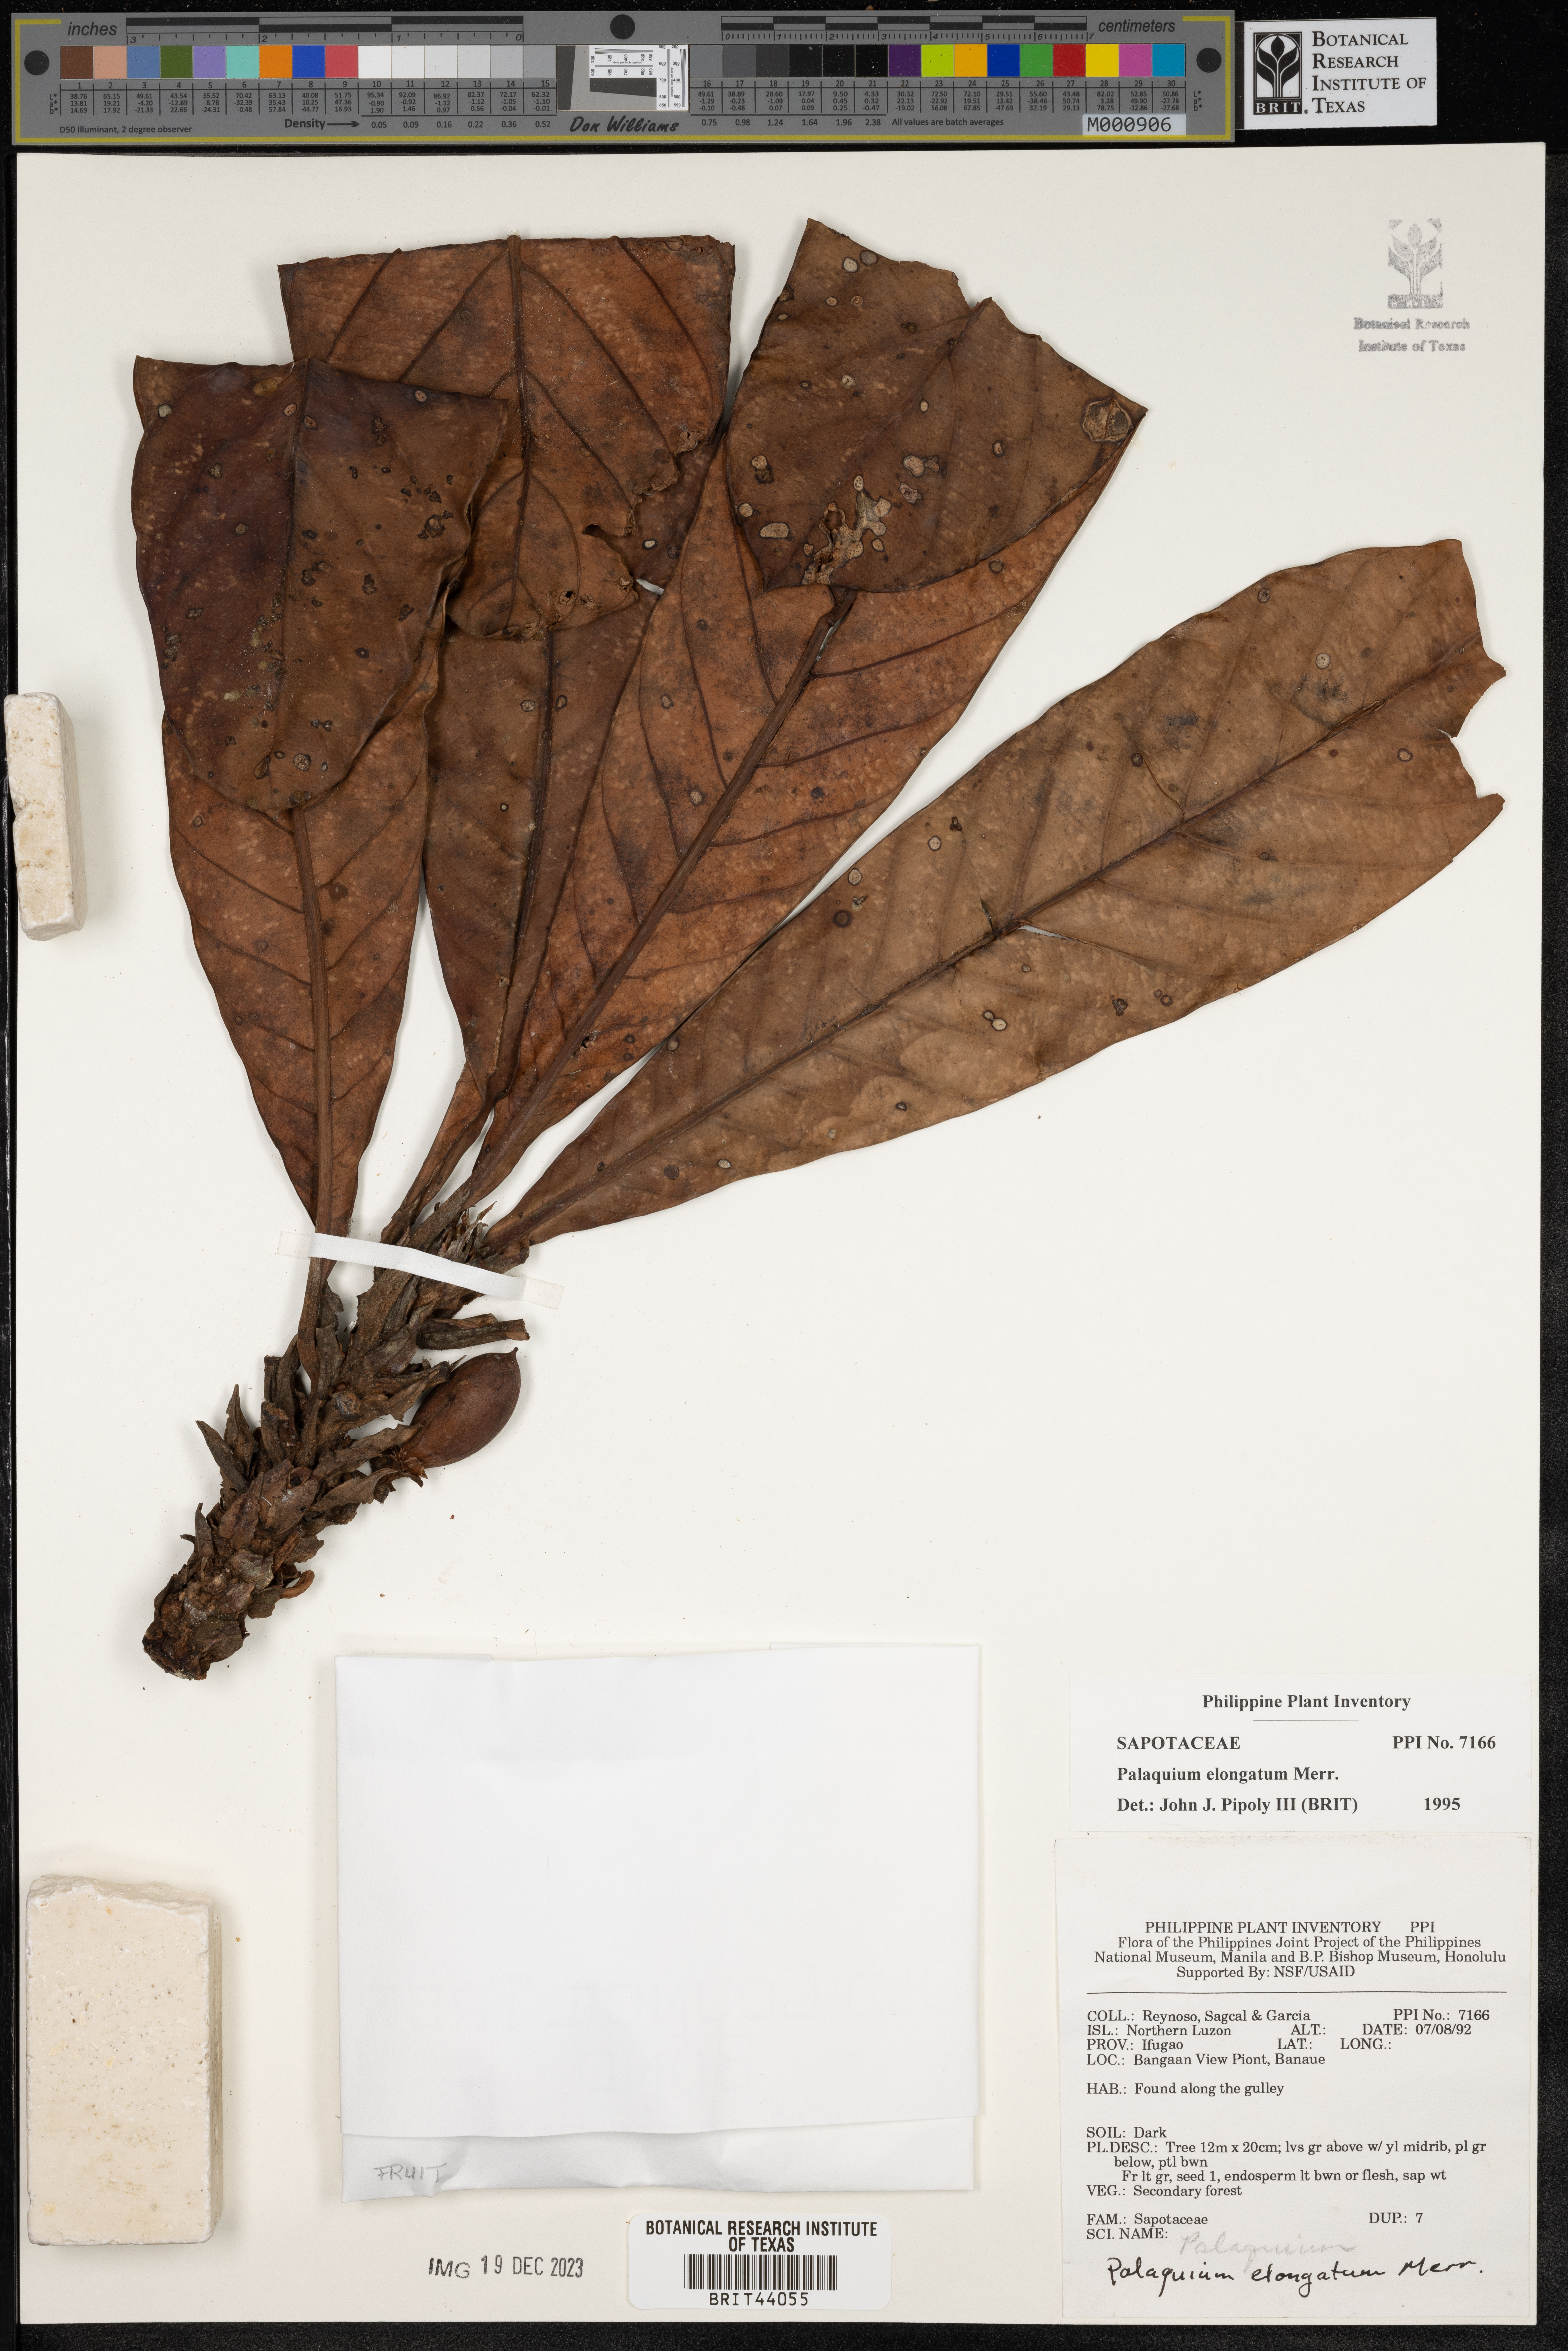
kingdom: Plantae
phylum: Tracheophyta
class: Magnoliopsida
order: Ericales
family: Sapotaceae
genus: Palaquium
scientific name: Palaquium elongatum
